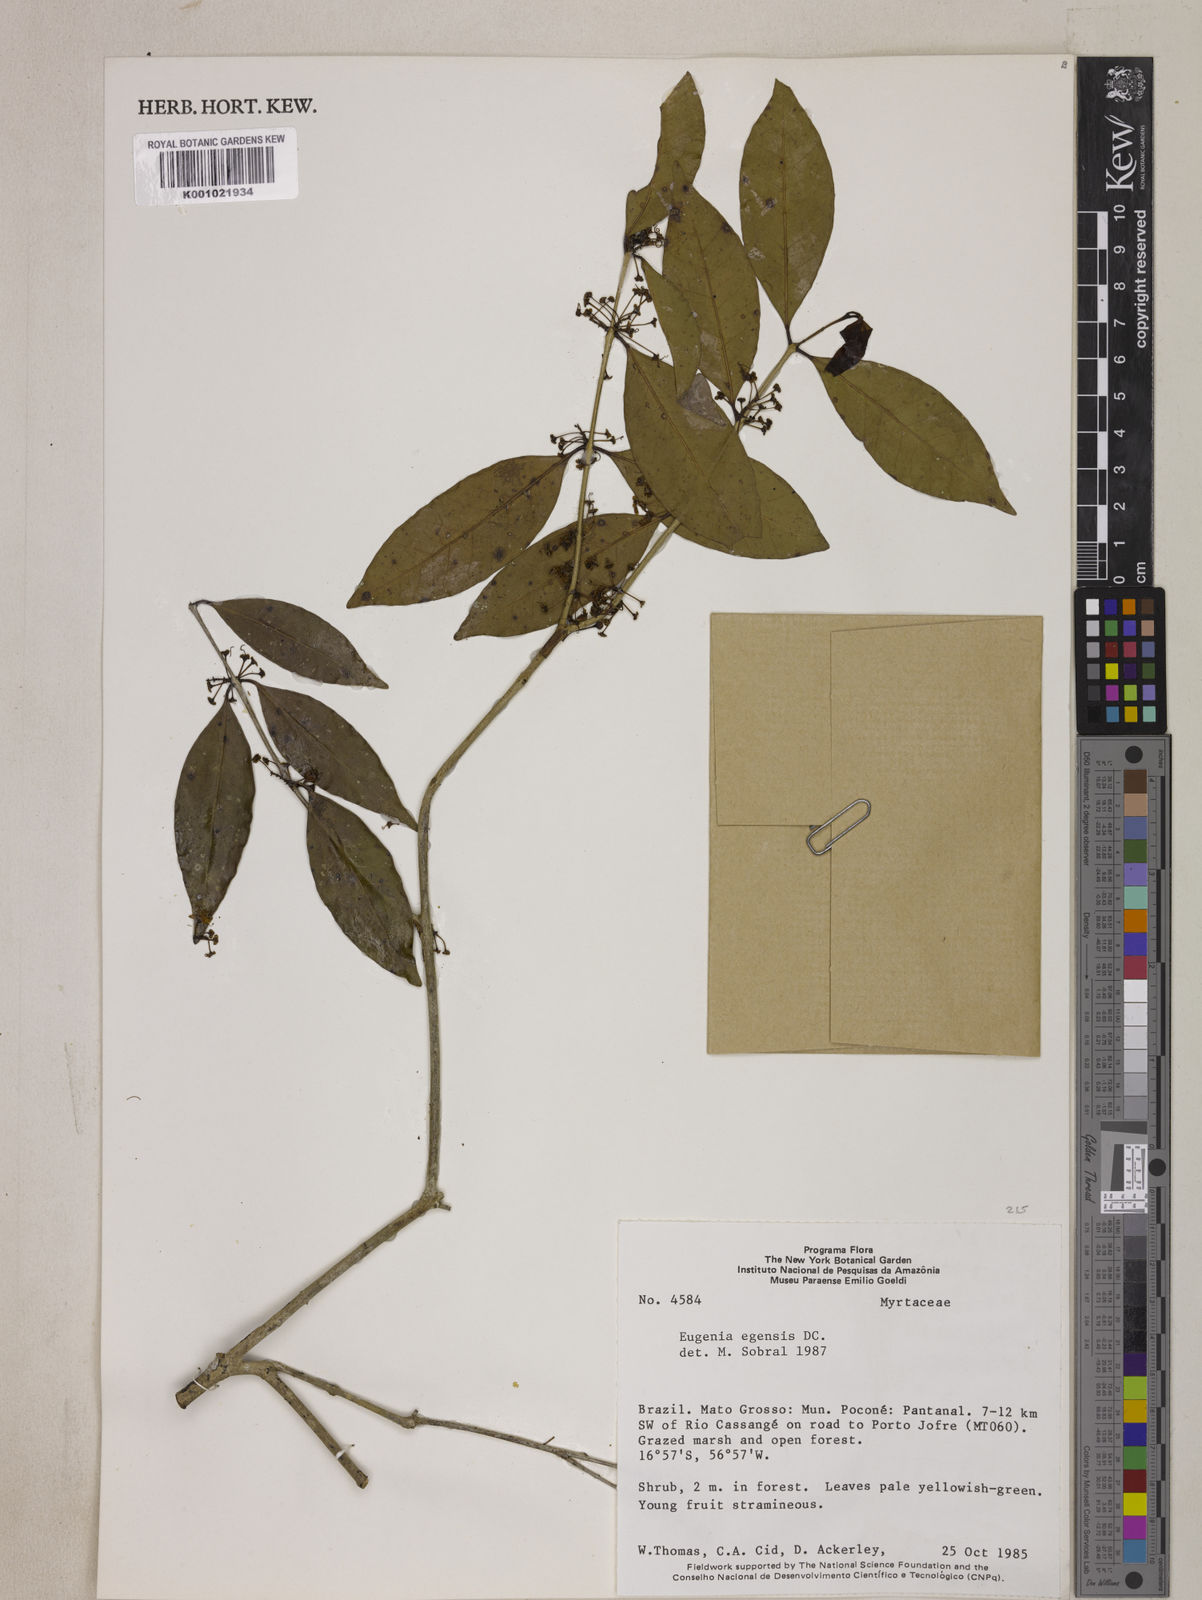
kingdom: Plantae
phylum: Tracheophyta
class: Magnoliopsida
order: Myrtales
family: Myrtaceae
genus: Eugenia
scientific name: Eugenia egensis
